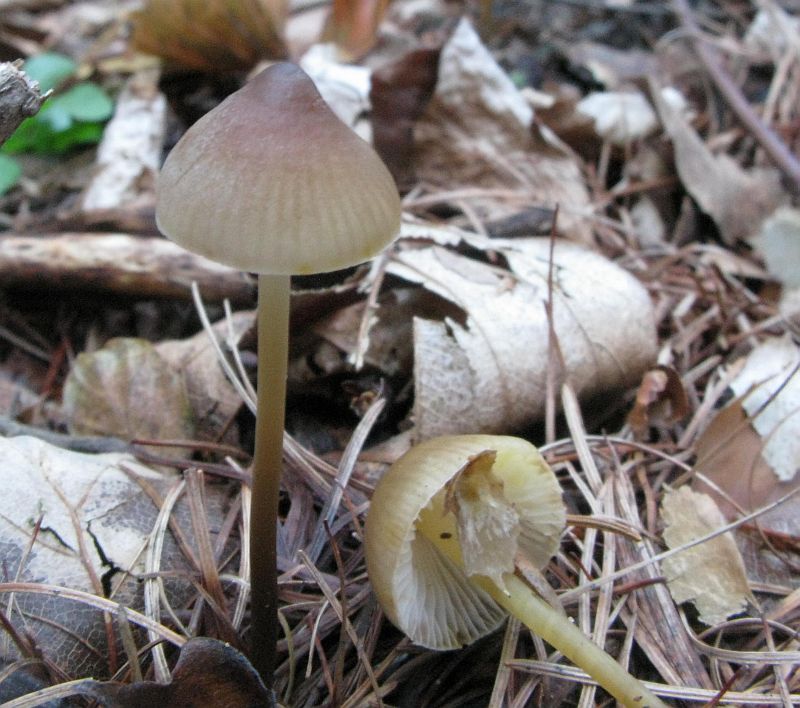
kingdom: Fungi
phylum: Basidiomycota
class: Agaricomycetes
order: Agaricales
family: Mycenaceae
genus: Mycena
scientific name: Mycena crocata
